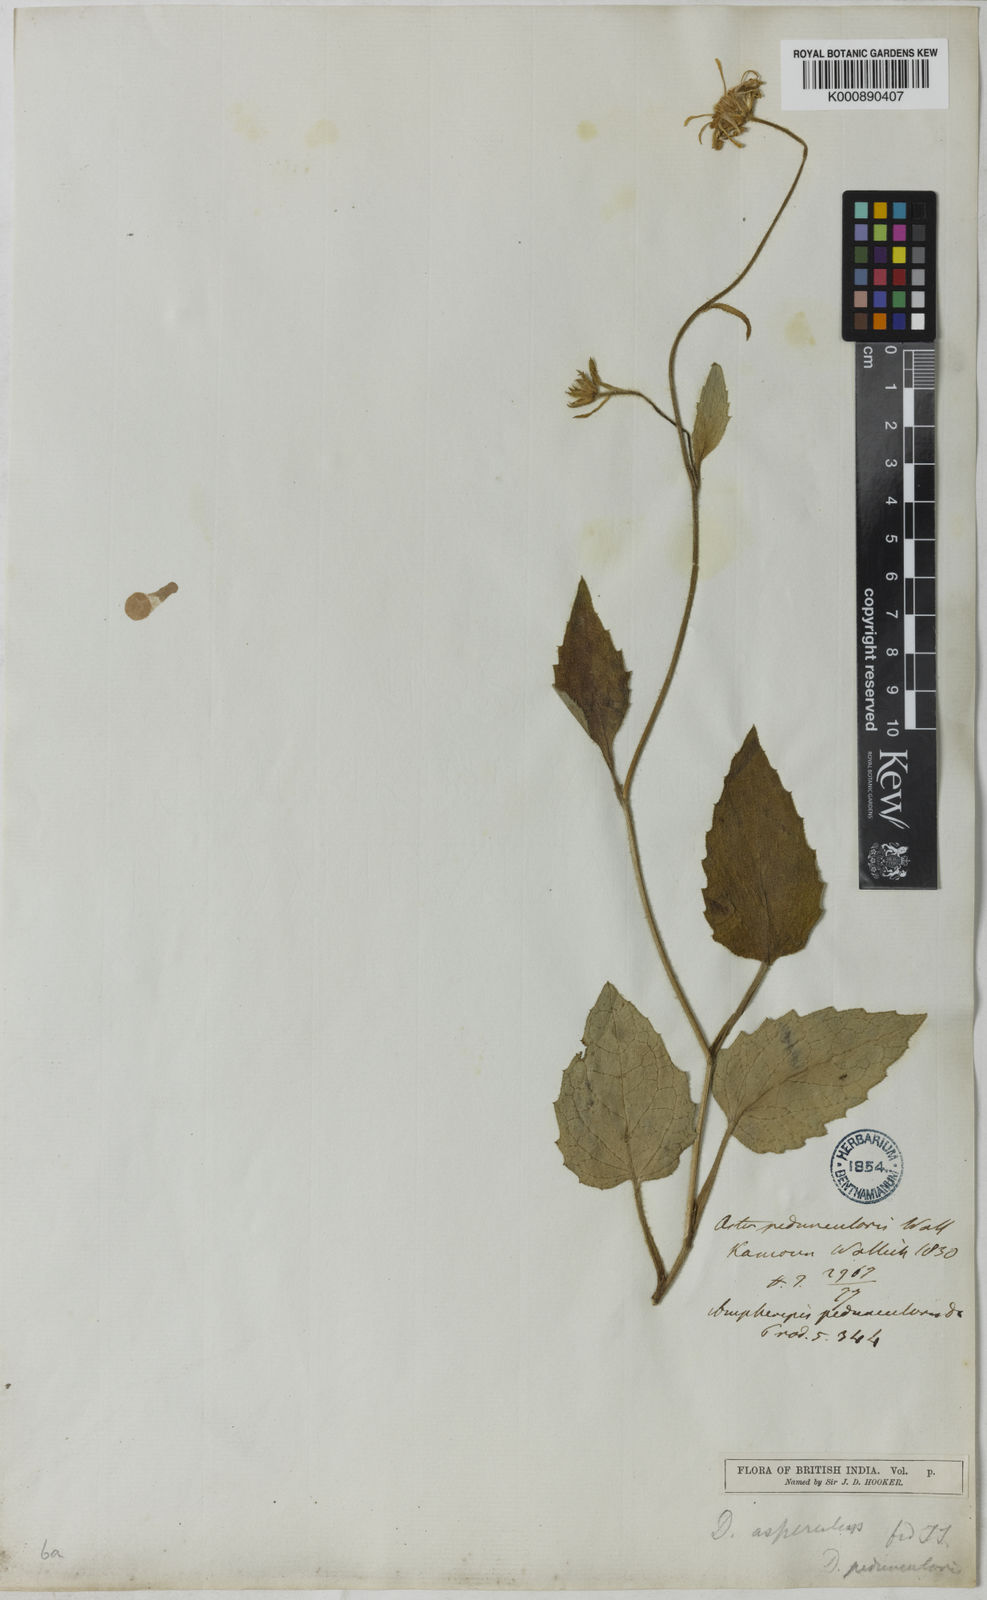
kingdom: Plantae
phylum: Tracheophyta
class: Magnoliopsida
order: Asterales
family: Asteraceae
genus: Aster
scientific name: Aster
